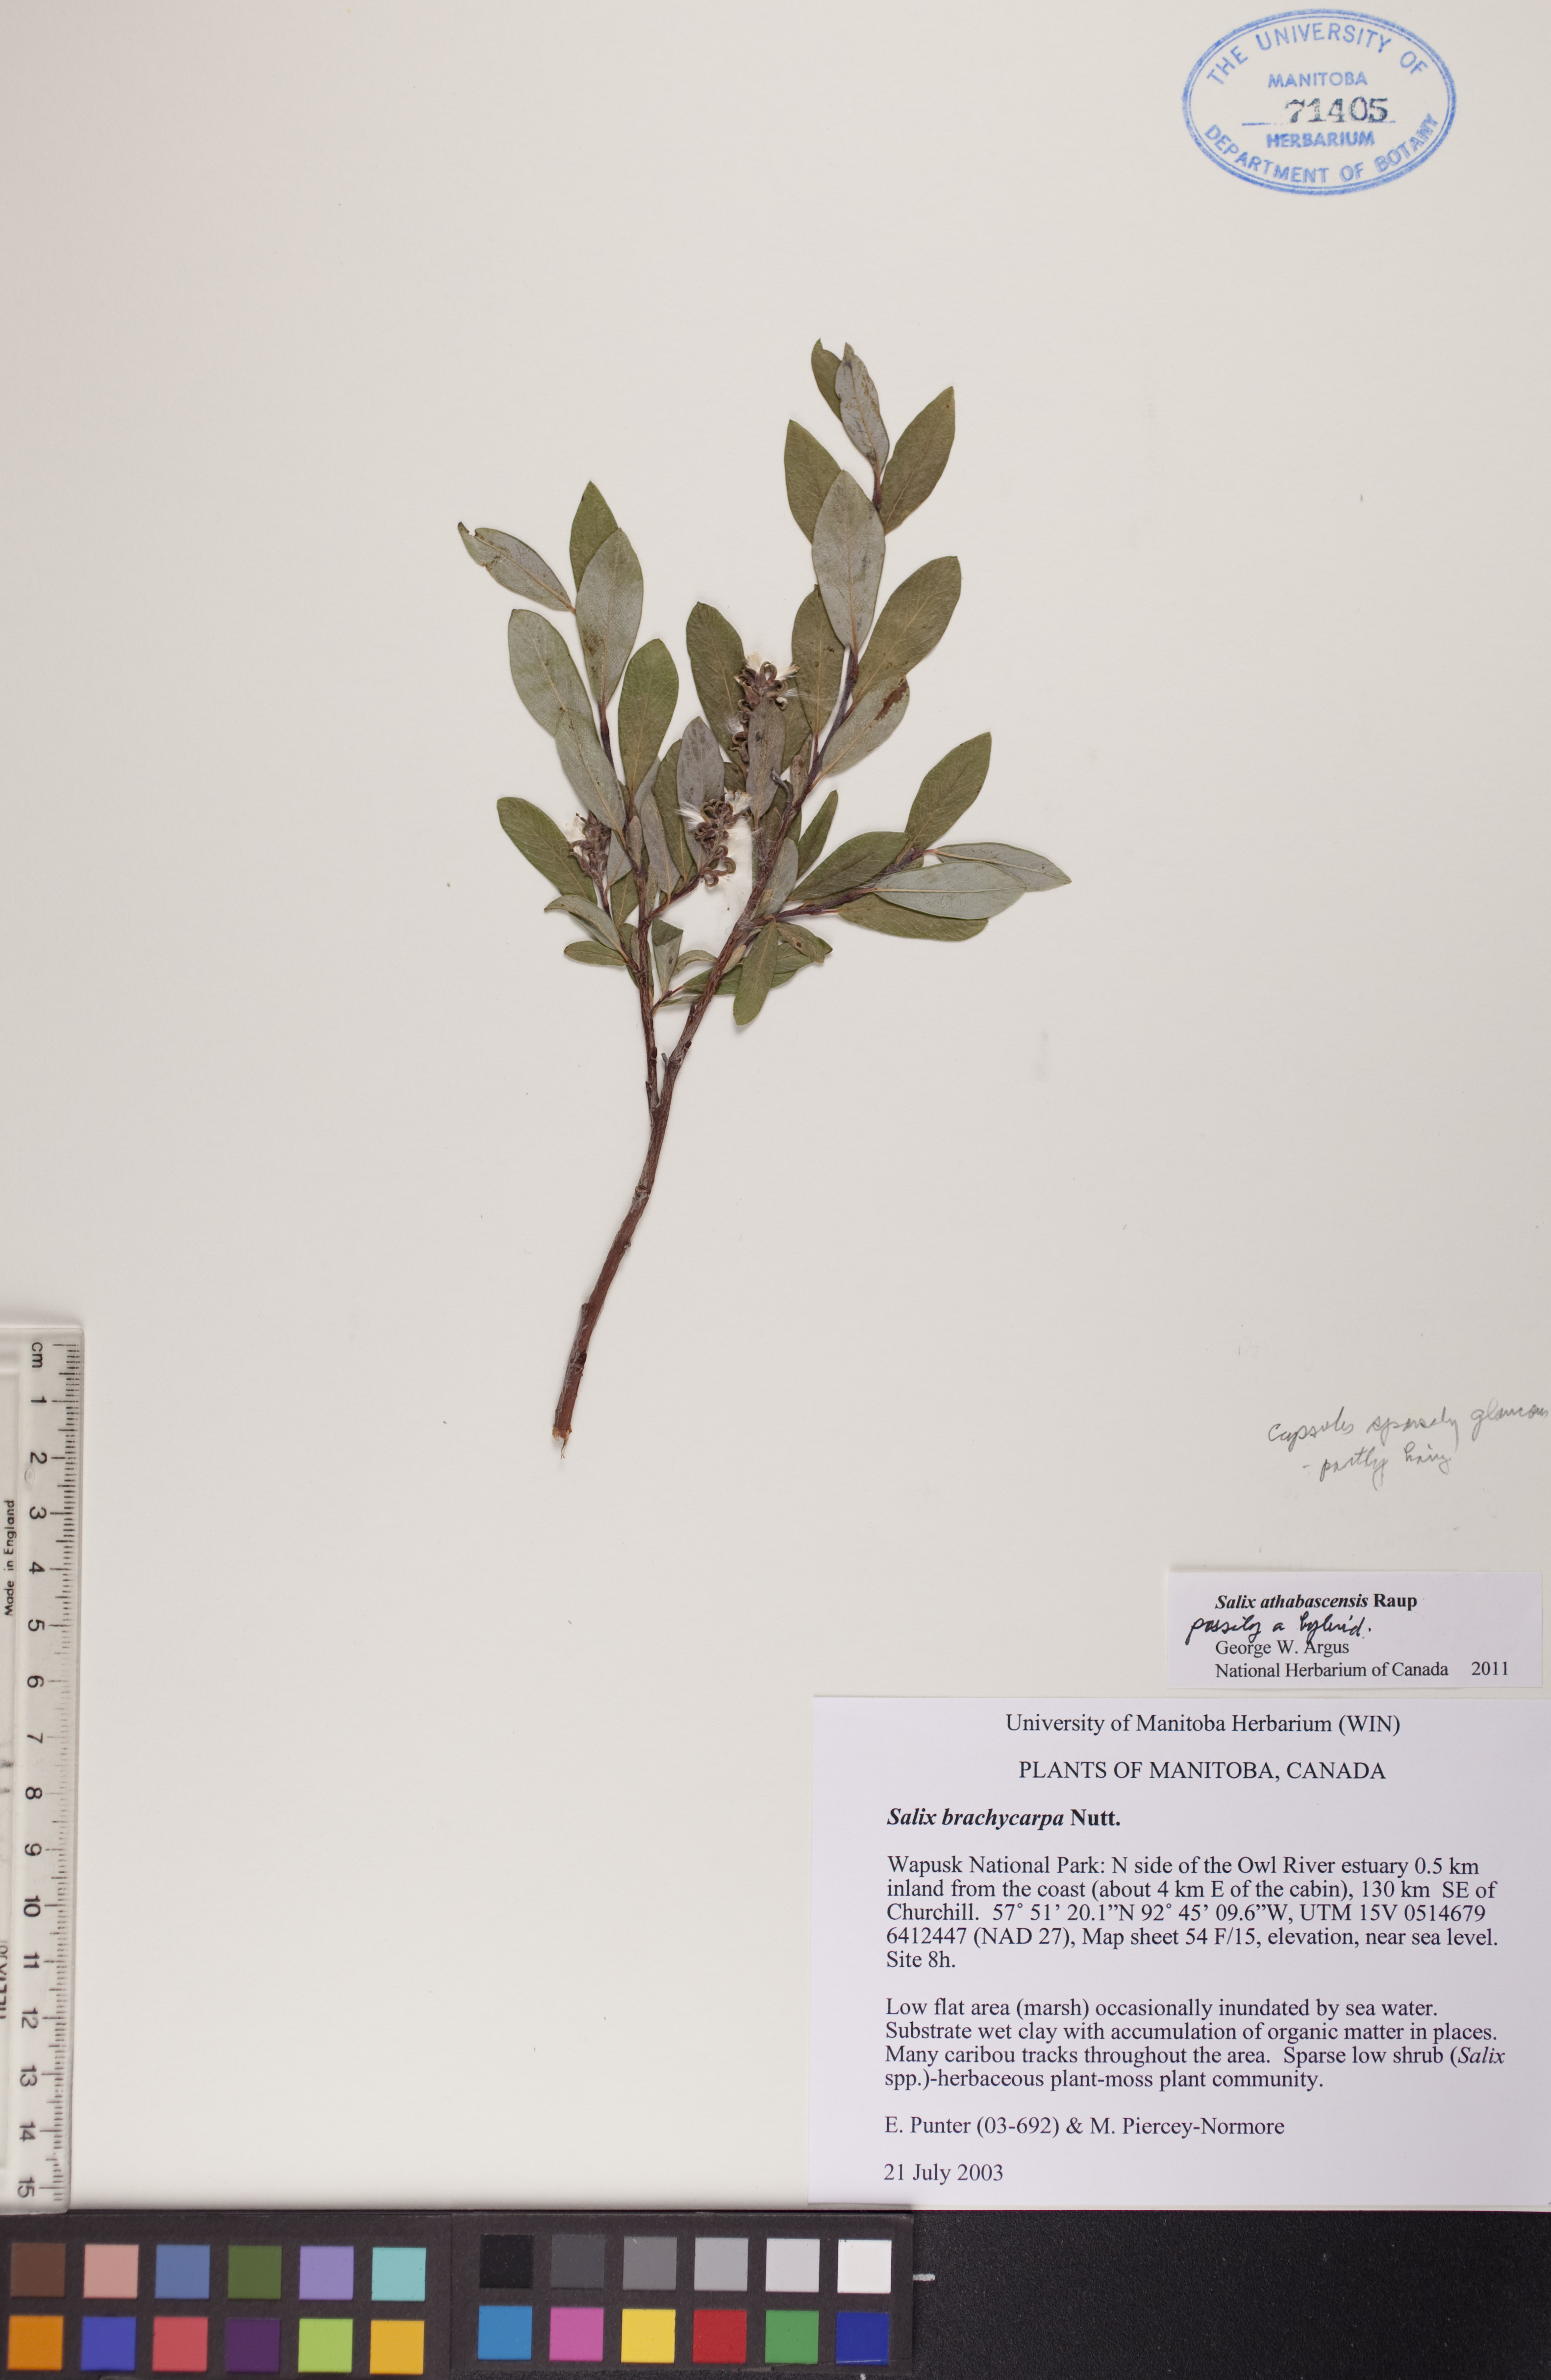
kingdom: Plantae
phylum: Tracheophyta
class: Magnoliopsida
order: Malpighiales
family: Salicaceae
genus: Salix
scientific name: Salix athabascensis
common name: Athabasca willow
